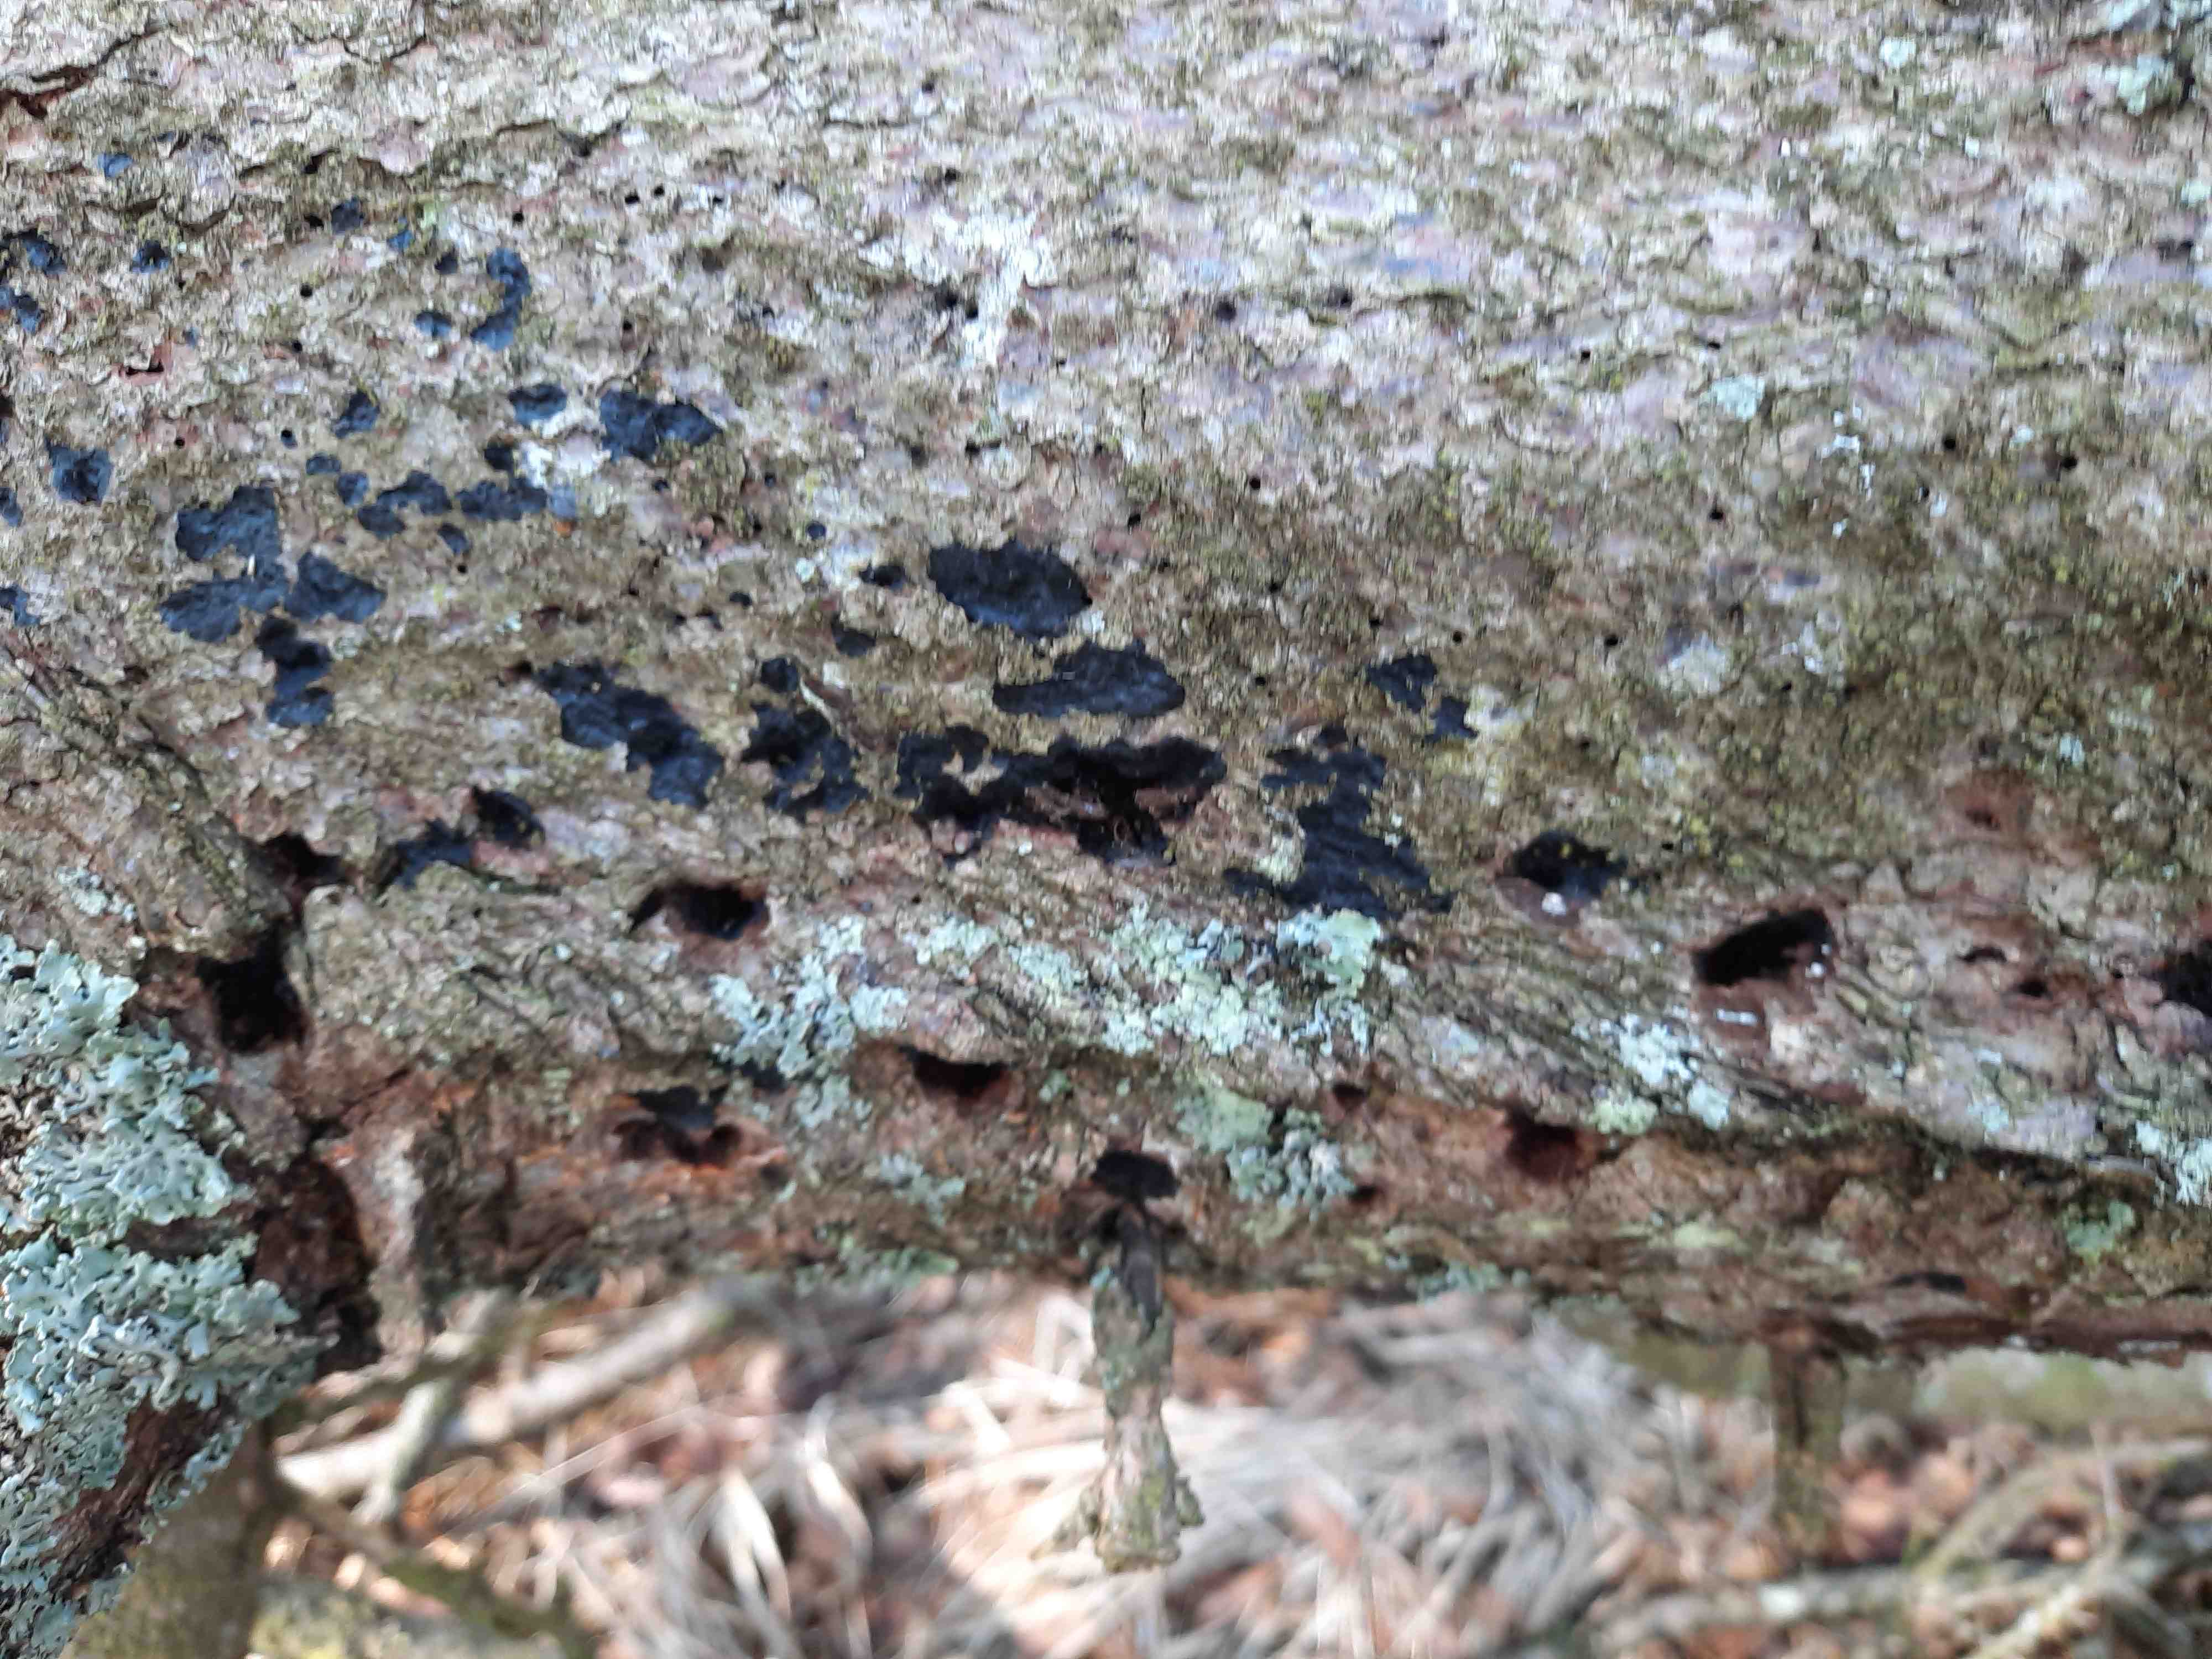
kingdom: Fungi
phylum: Basidiomycota
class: Agaricomycetes
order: Auriculariales
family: Auriculariaceae
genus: Exidia
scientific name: Exidia pithya
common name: gran-bævretop
